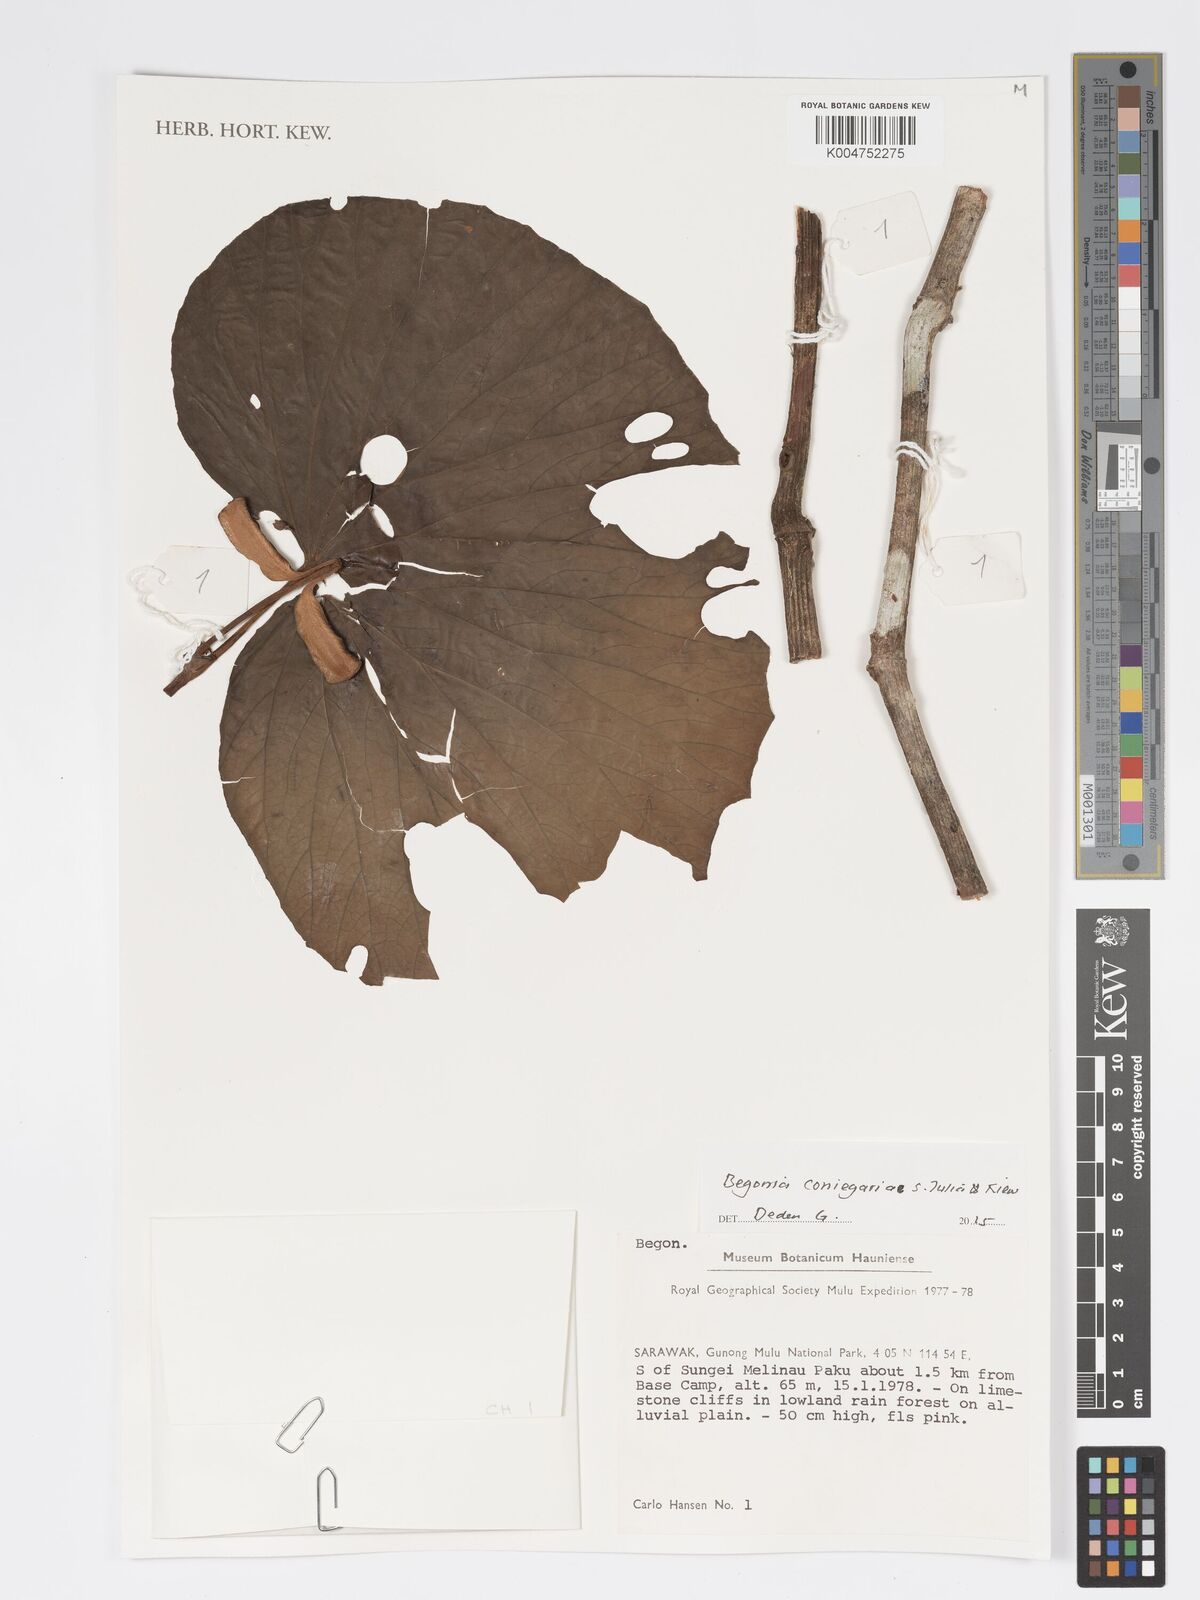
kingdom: Plantae
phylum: Tracheophyta
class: Magnoliopsida
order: Cucurbitales
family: Begoniaceae
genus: Begonia
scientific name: Begonia conniegeriae
